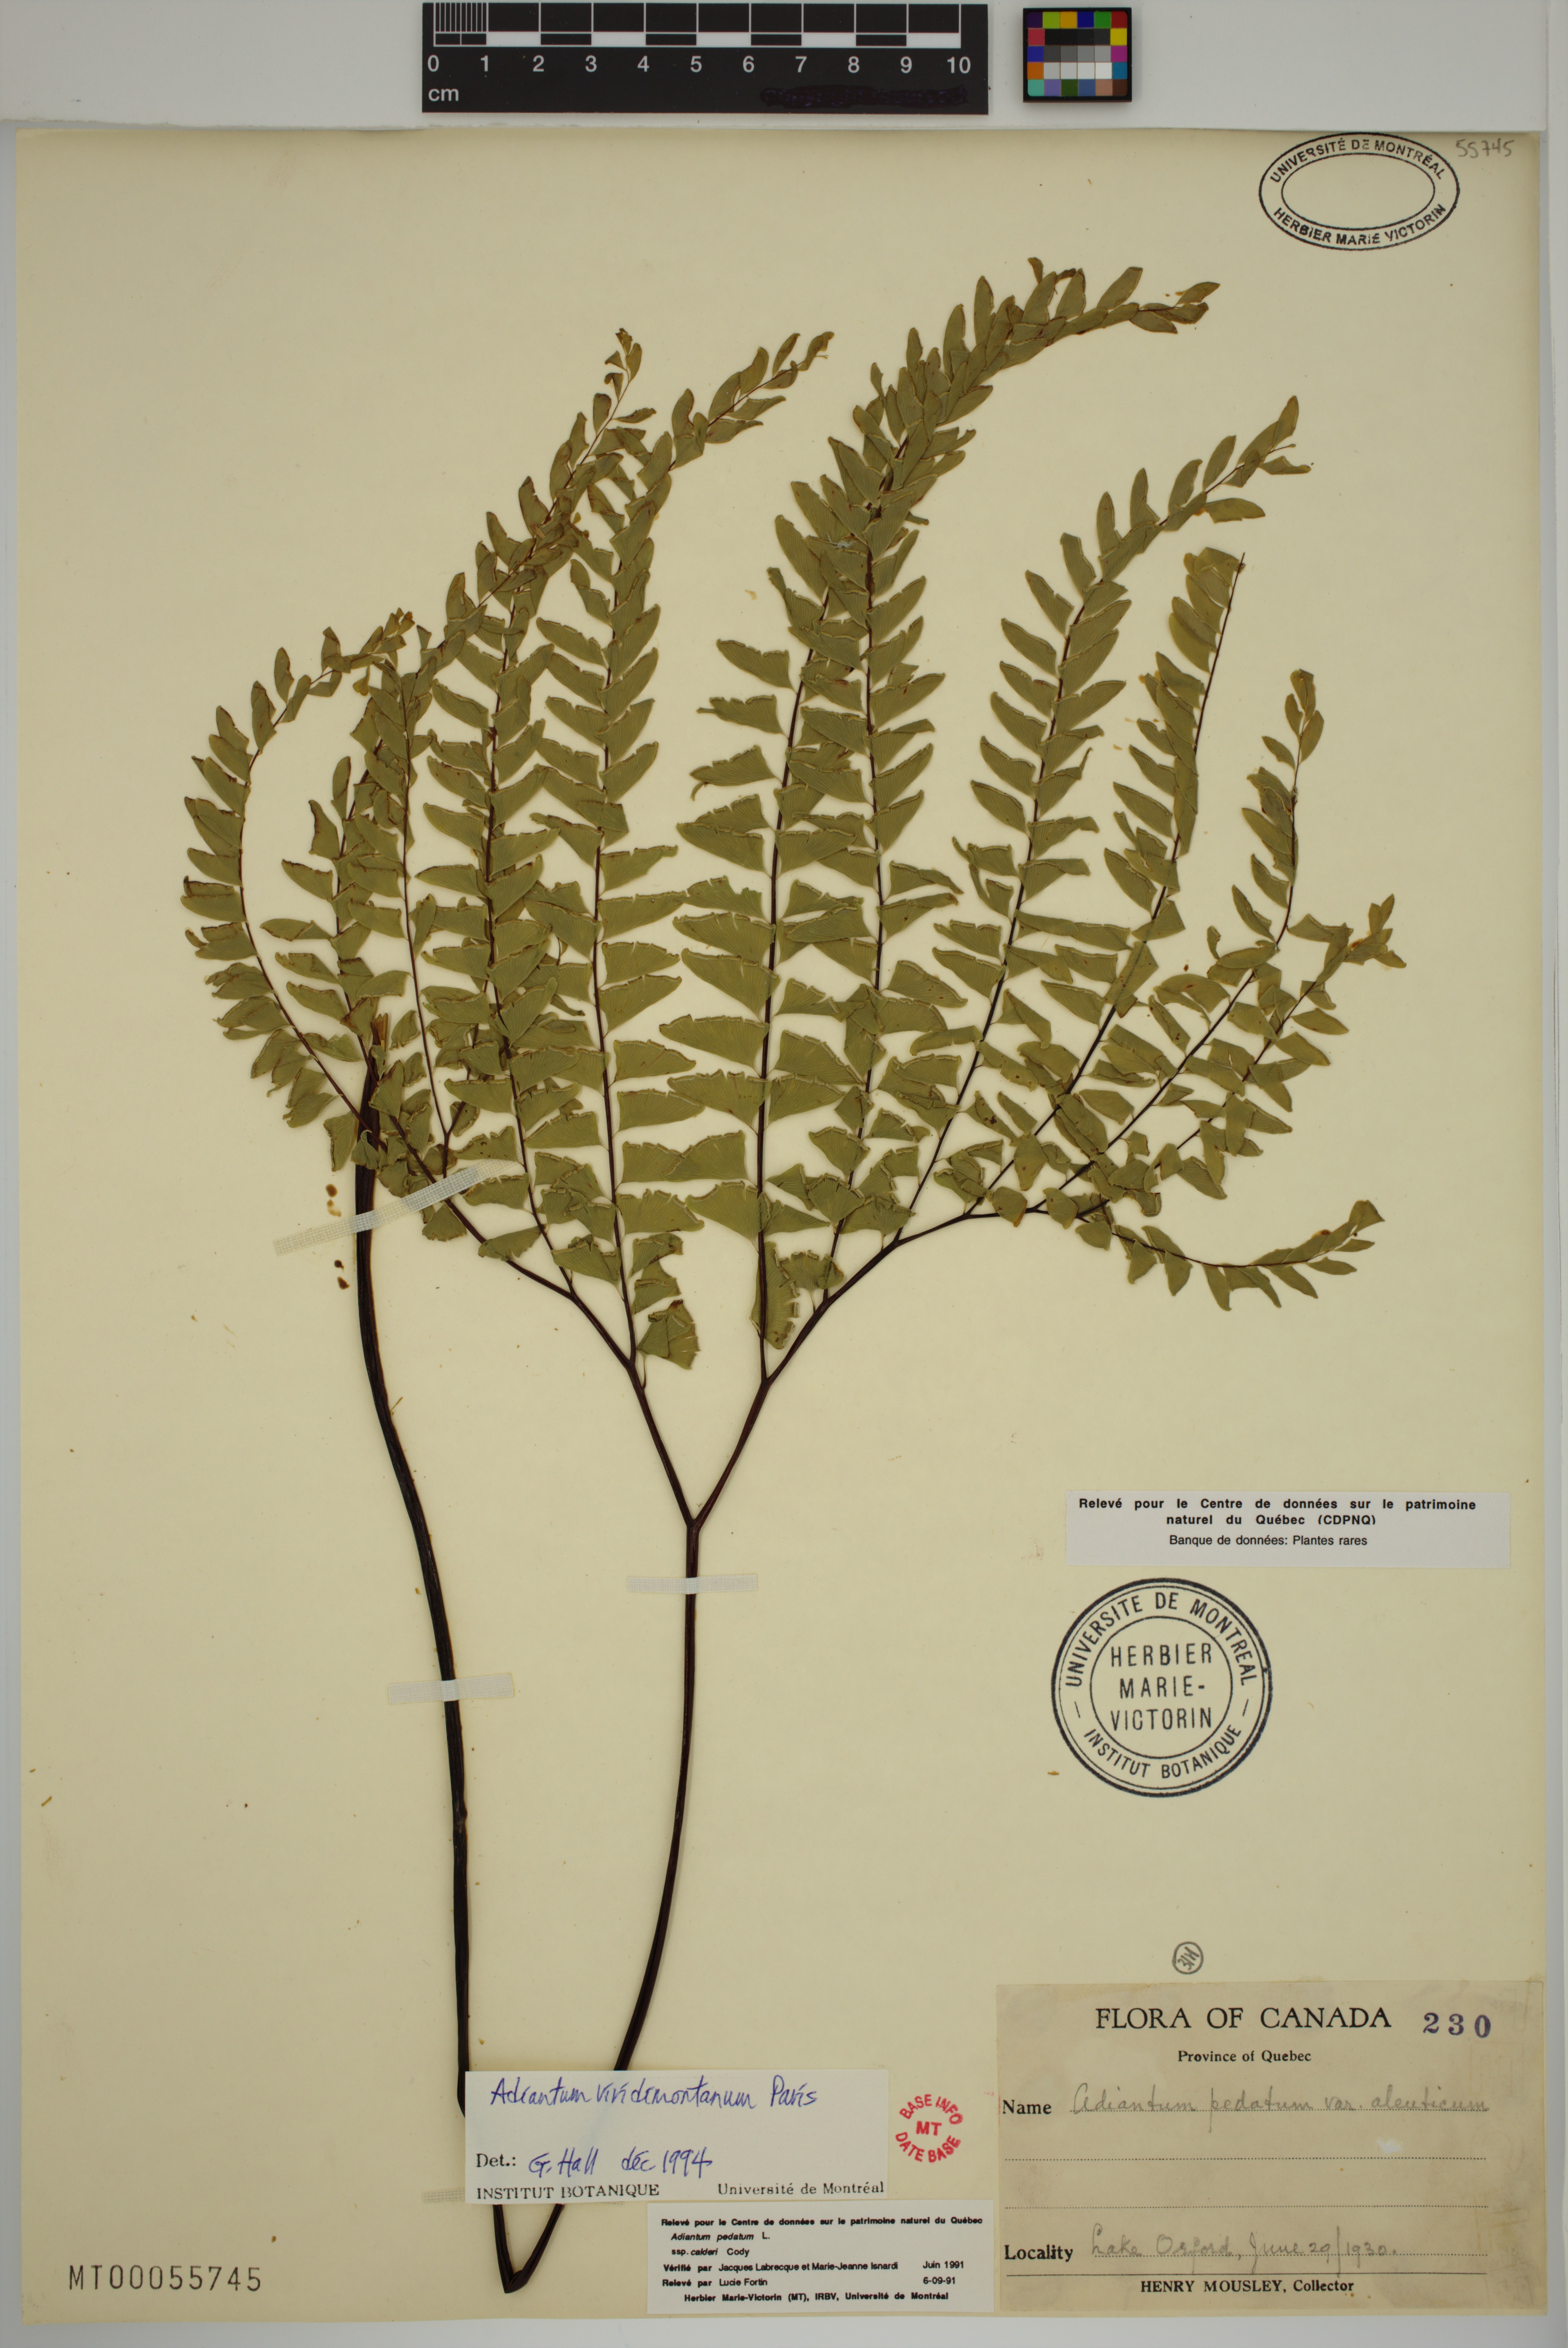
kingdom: Plantae
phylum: Tracheophyta
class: Polypodiopsida
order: Polypodiales
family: Pteridaceae
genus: Adiantum
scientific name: Adiantum viridimontanum
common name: Green mountain maidenhair
